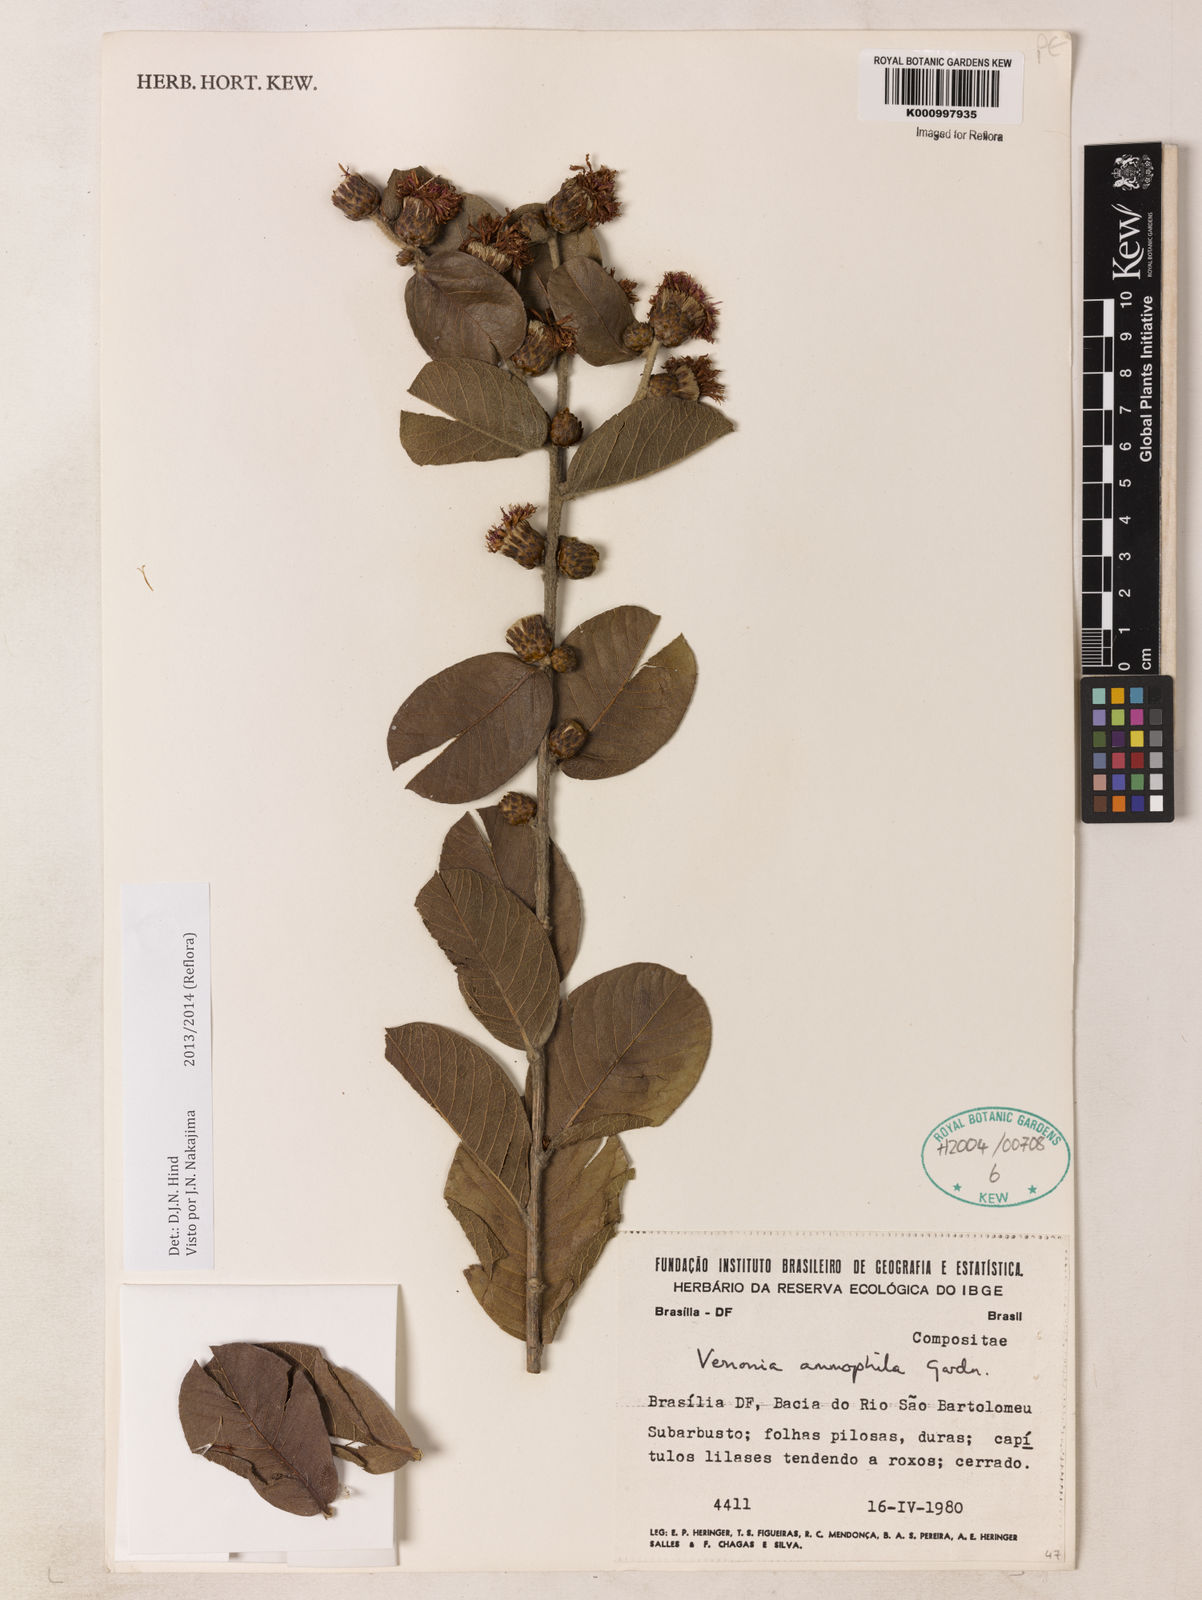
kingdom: Plantae
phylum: Tracheophyta
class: Magnoliopsida
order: Asterales
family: Asteraceae
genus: Lessingianthus
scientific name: Lessingianthus ammophilus
